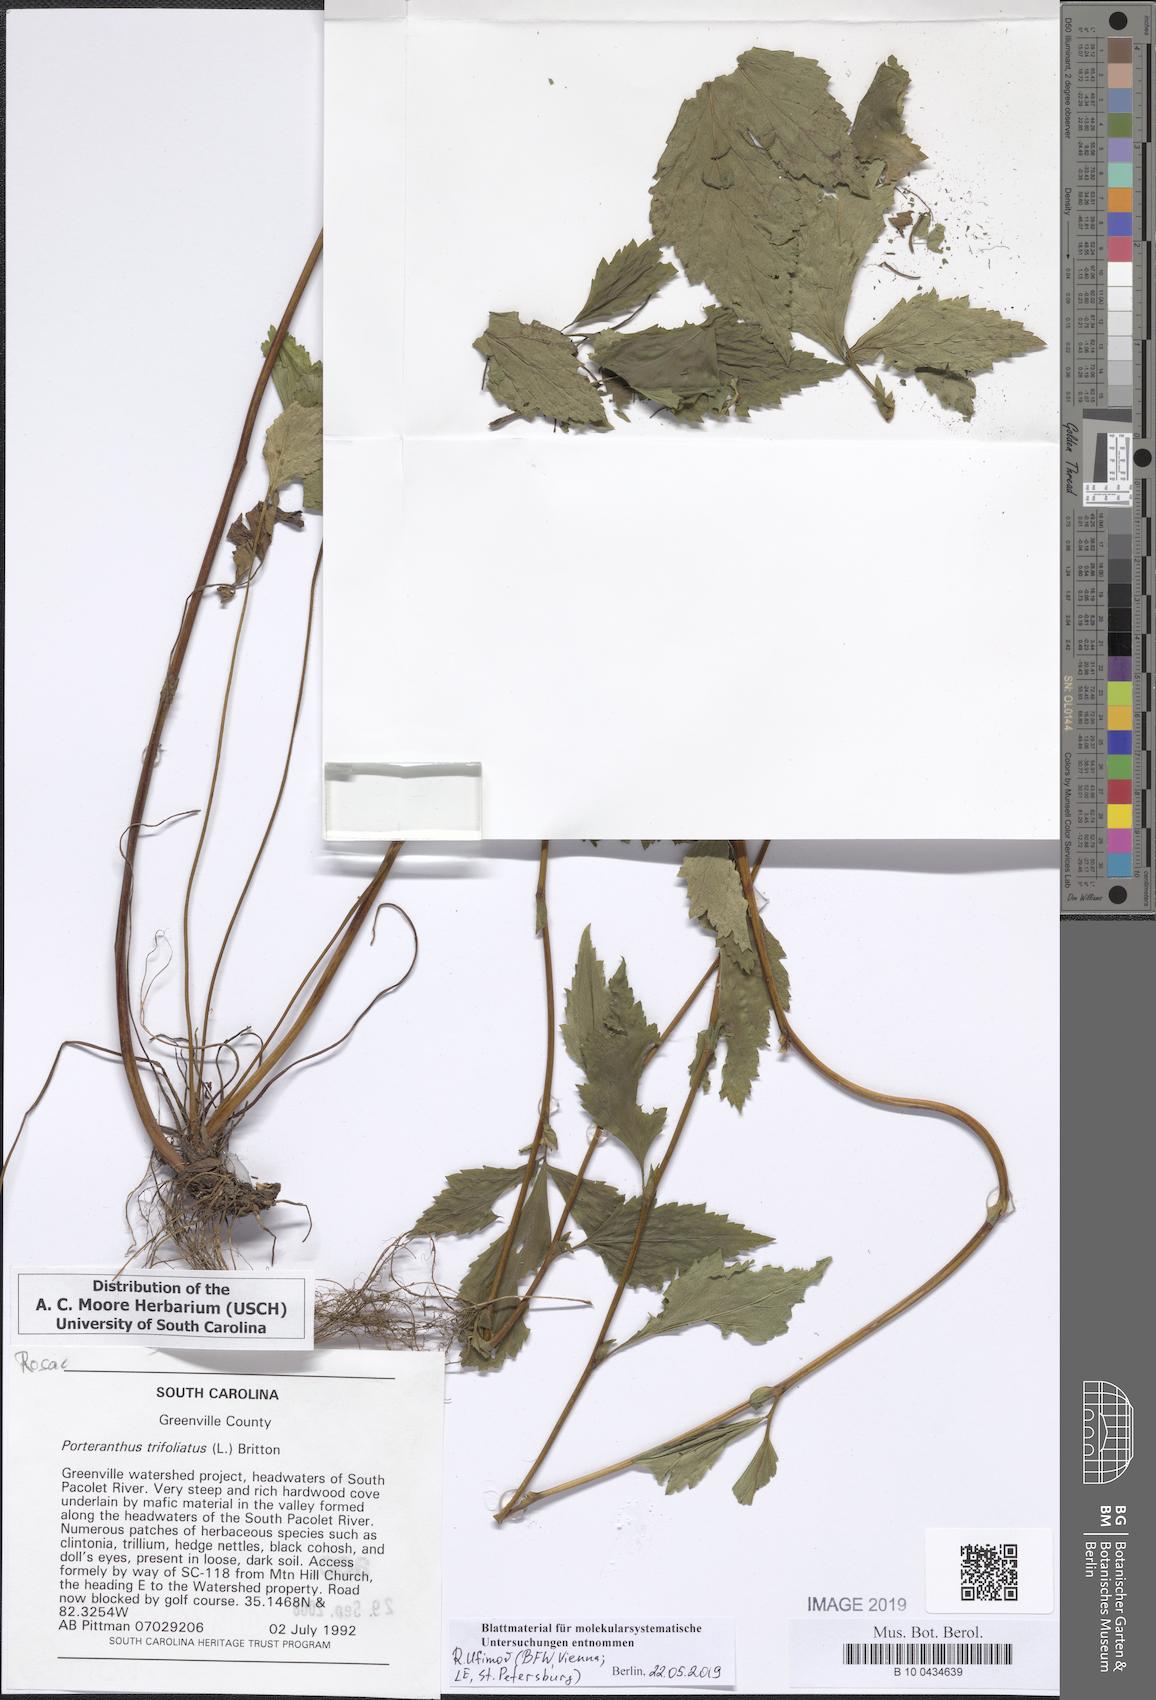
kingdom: Plantae
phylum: Tracheophyta
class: Magnoliopsida
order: Rosales
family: Rosaceae
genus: Gillenia
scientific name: Gillenia trifoliata
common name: Bowman's-root
